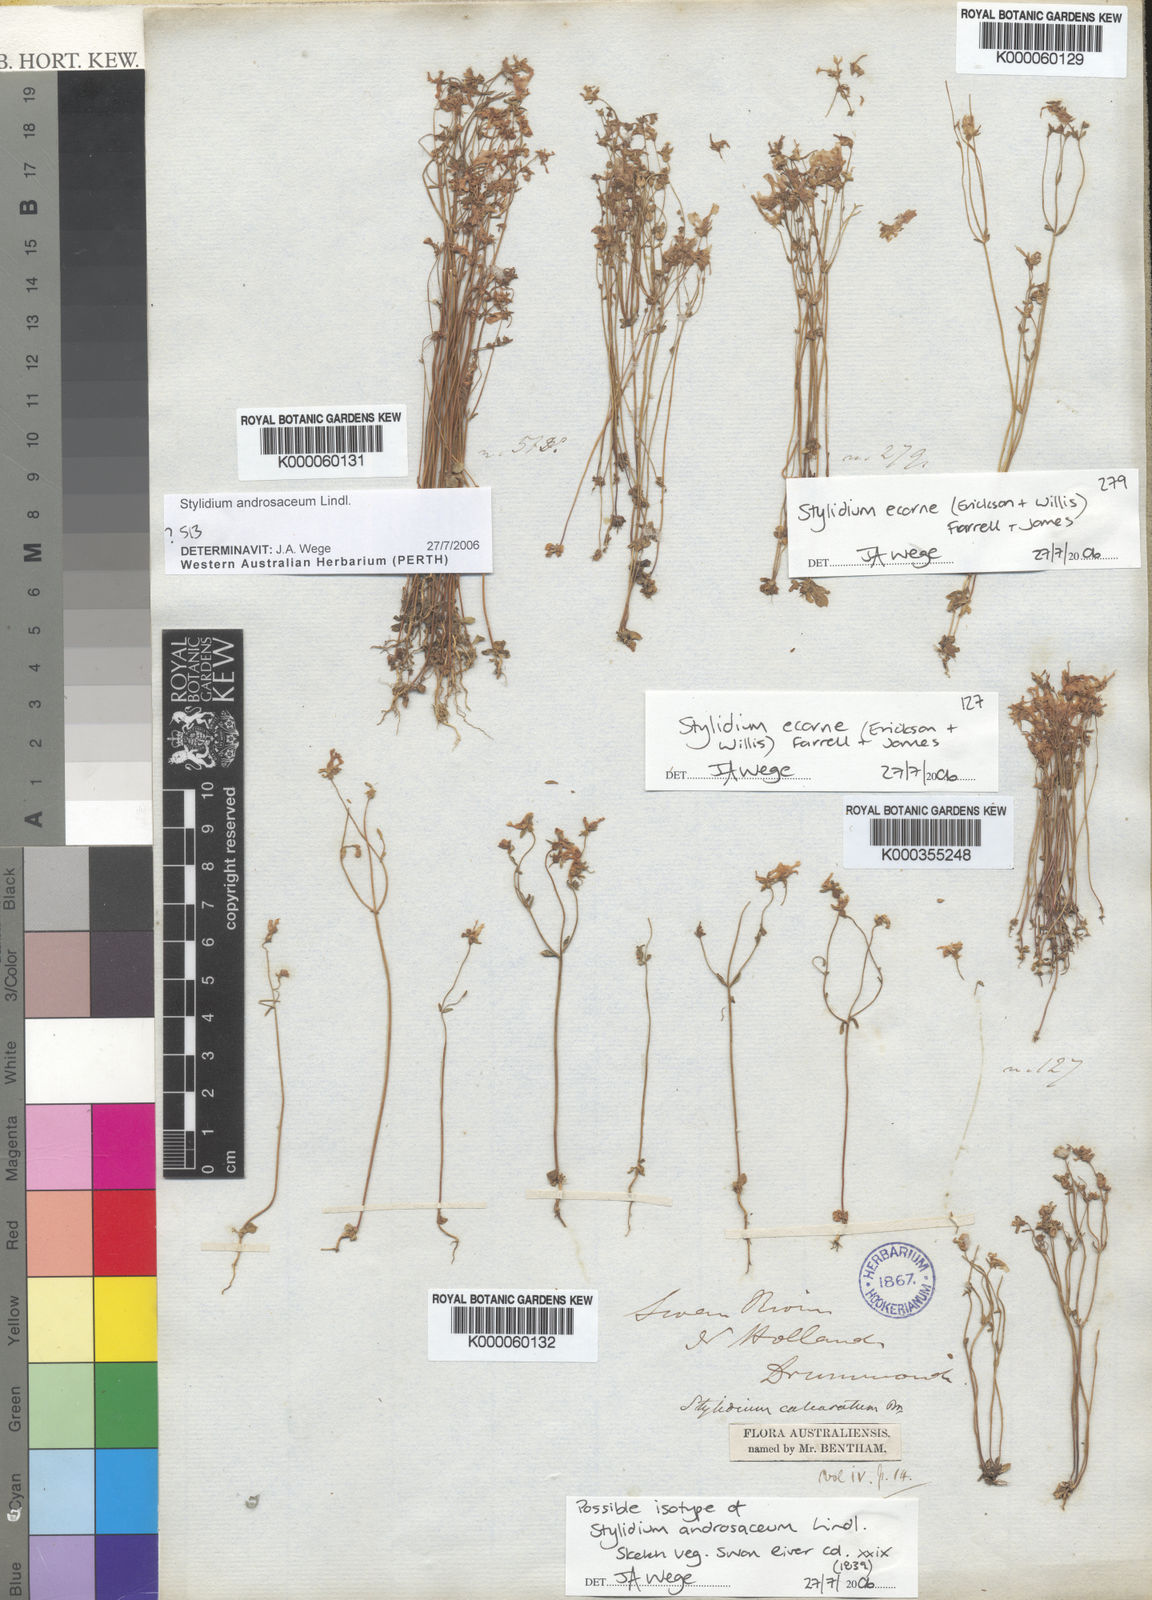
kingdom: Plantae
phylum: Tracheophyta
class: Magnoliopsida
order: Asterales
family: Stylidiaceae
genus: Stylidium
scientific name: Stylidium androsaceum
